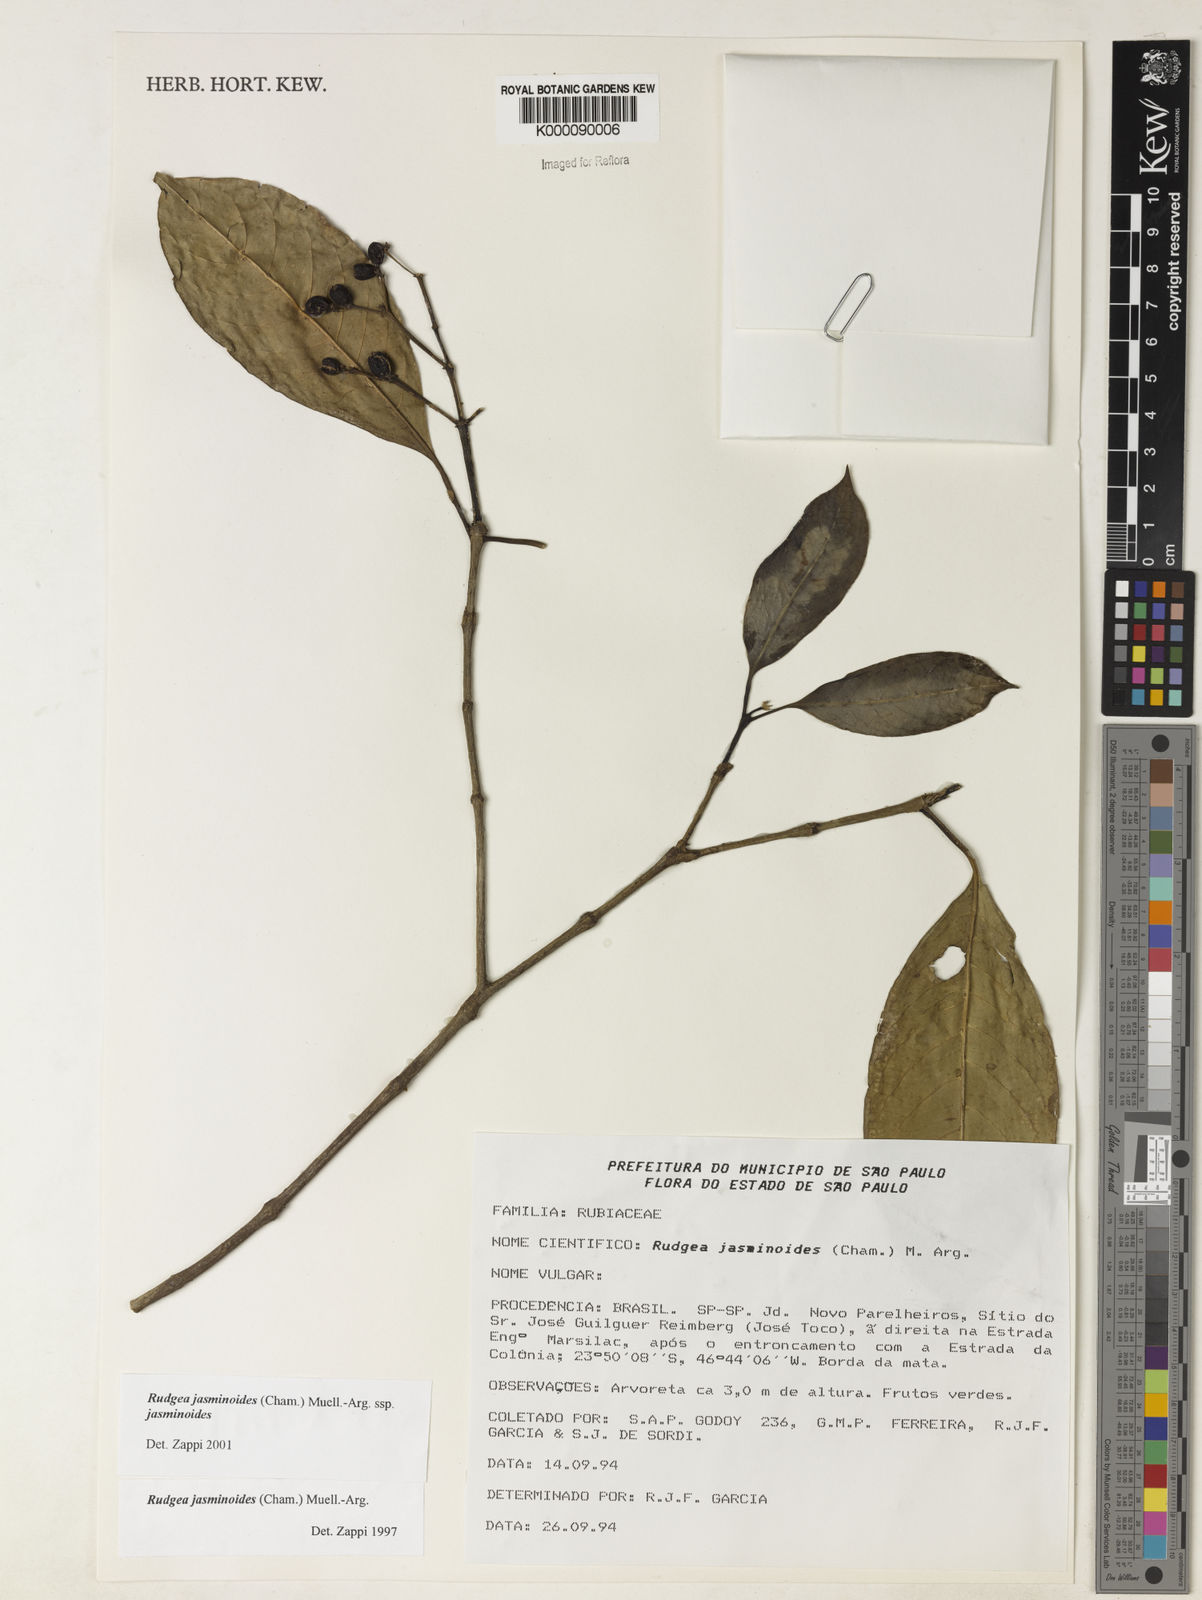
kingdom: Plantae
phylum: Tracheophyta
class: Magnoliopsida
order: Gentianales
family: Rubiaceae
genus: Rudgea
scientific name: Rudgea jasminoides
